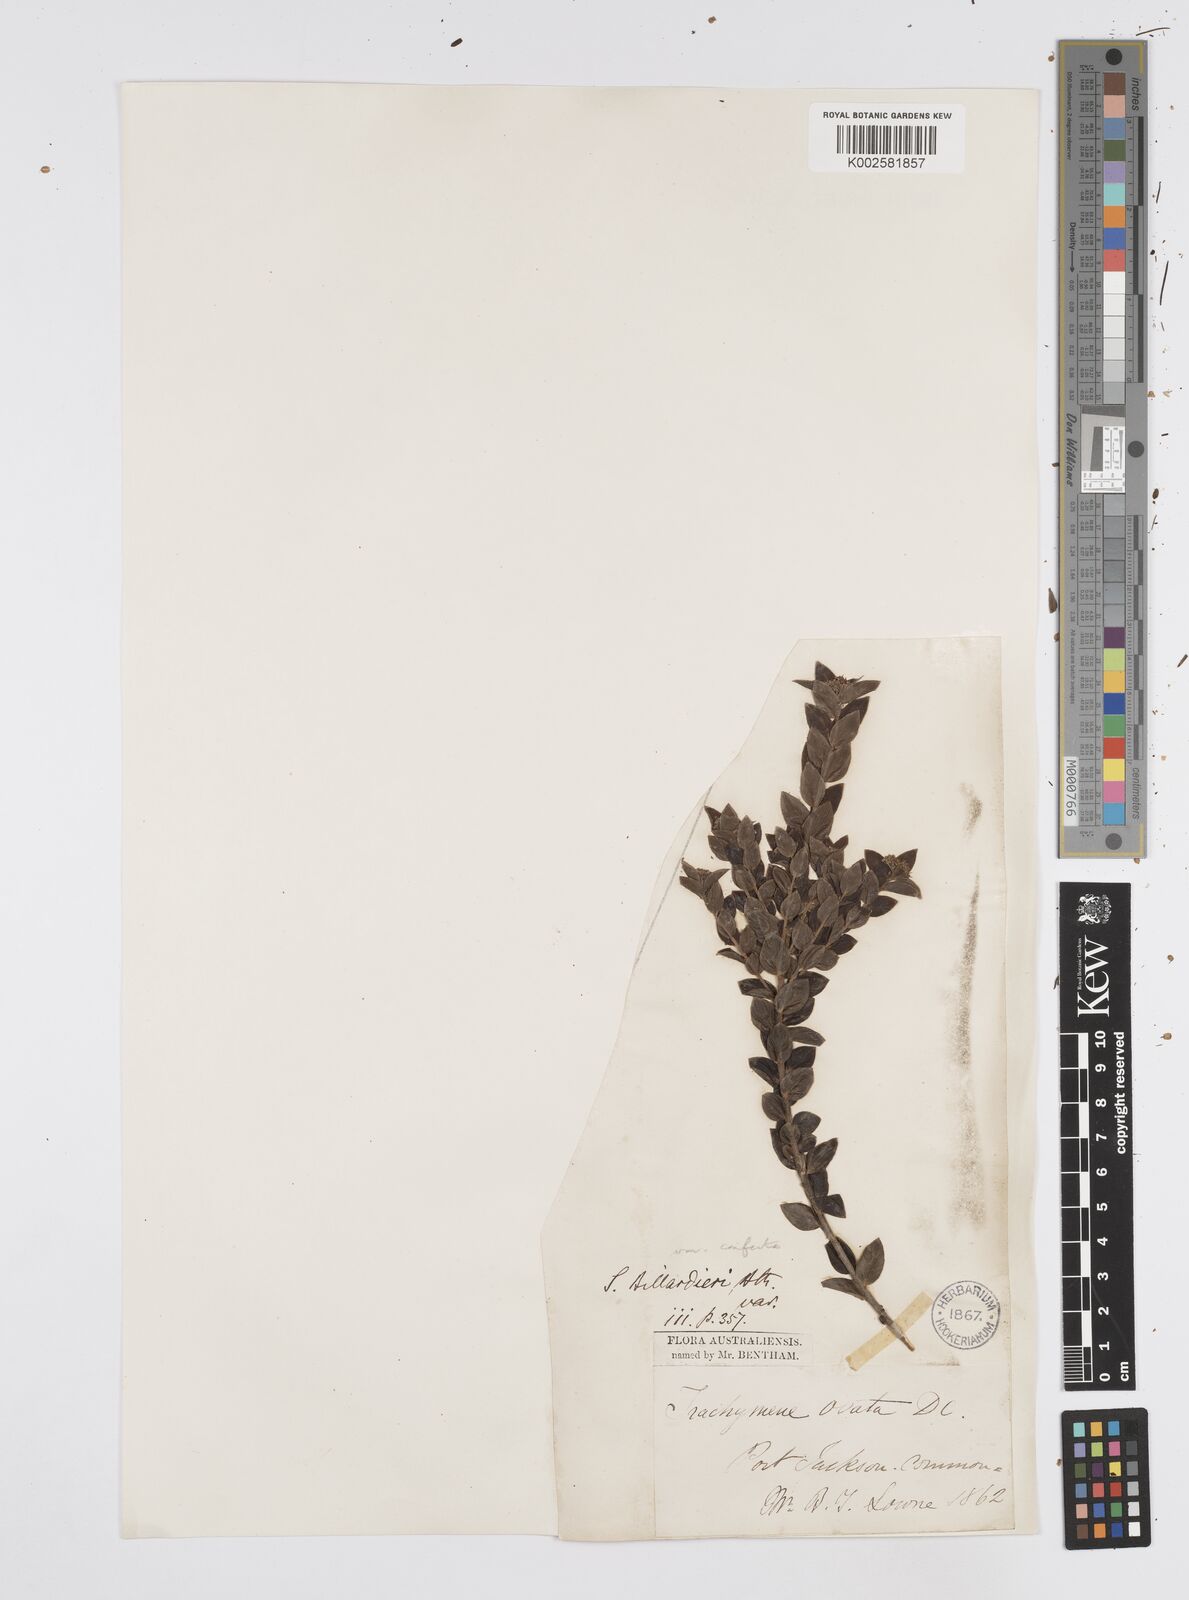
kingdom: Plantae
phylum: Tracheophyta
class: Magnoliopsida
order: Apiales
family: Apiaceae
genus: Platysace
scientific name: Platysace lanceolata
